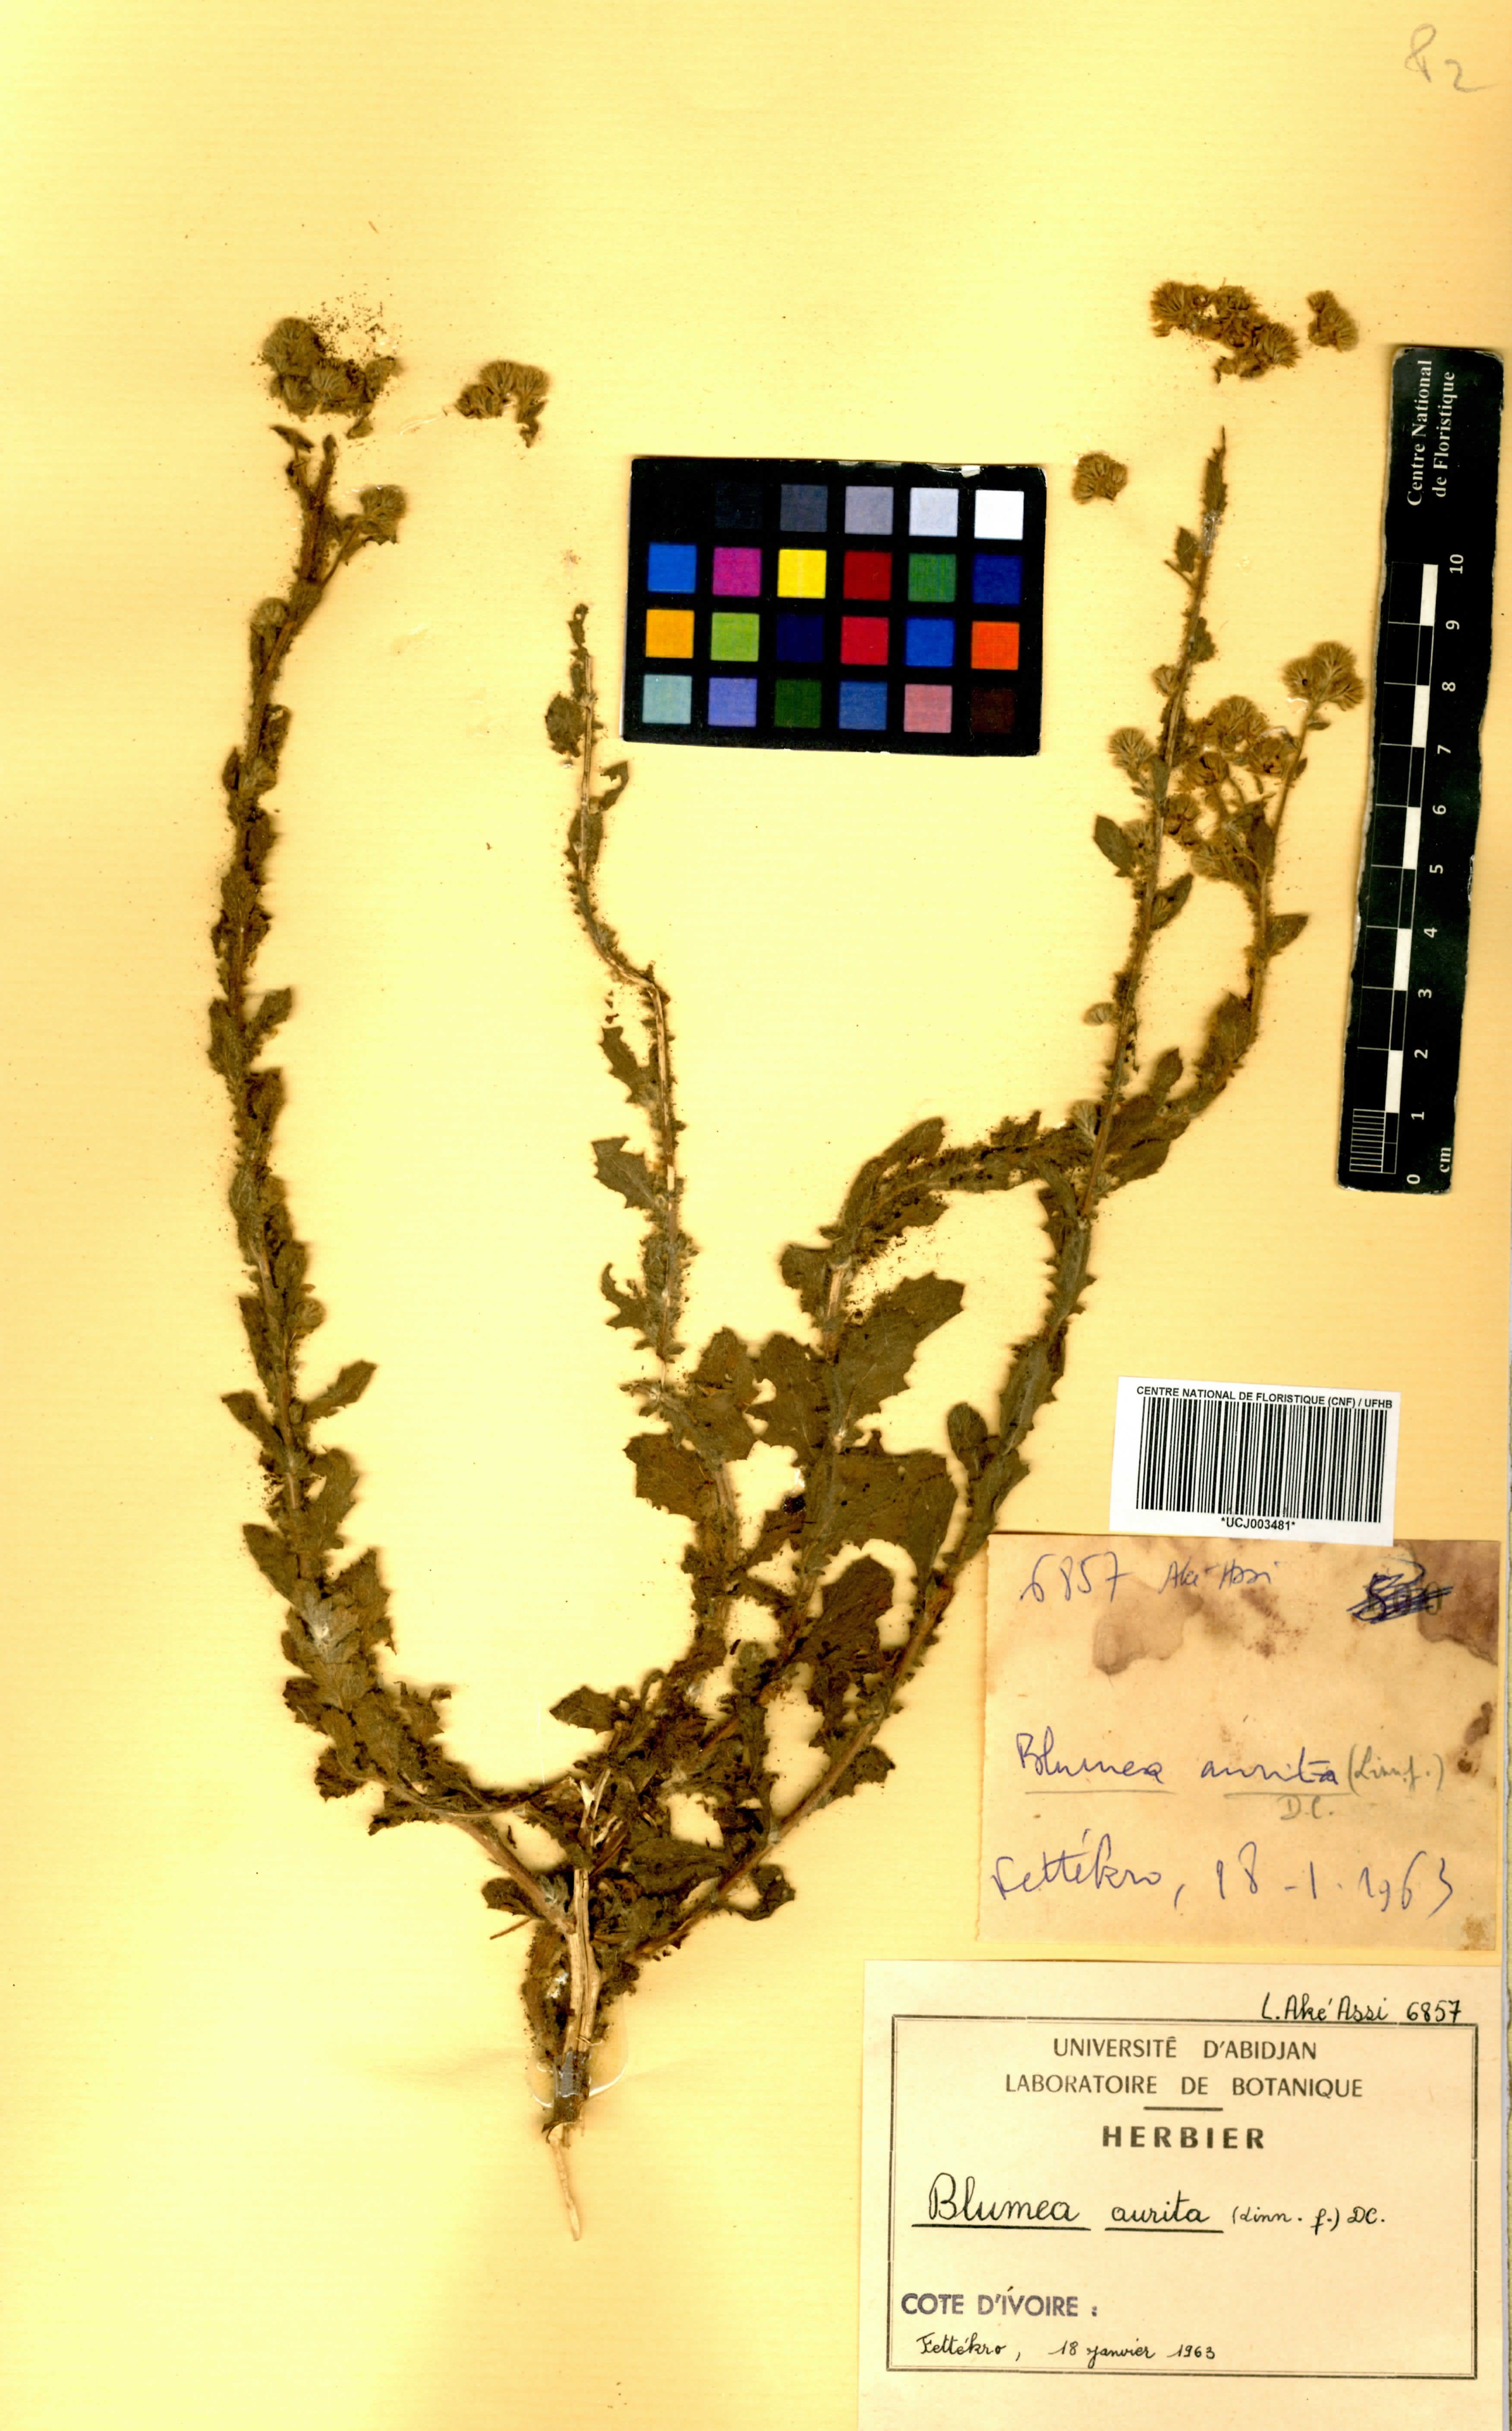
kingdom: Plantae
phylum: Tracheophyta
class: Magnoliopsida
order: Asterales
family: Asteraceae
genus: Pseudoconyza
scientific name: Pseudoconyza viscosa
